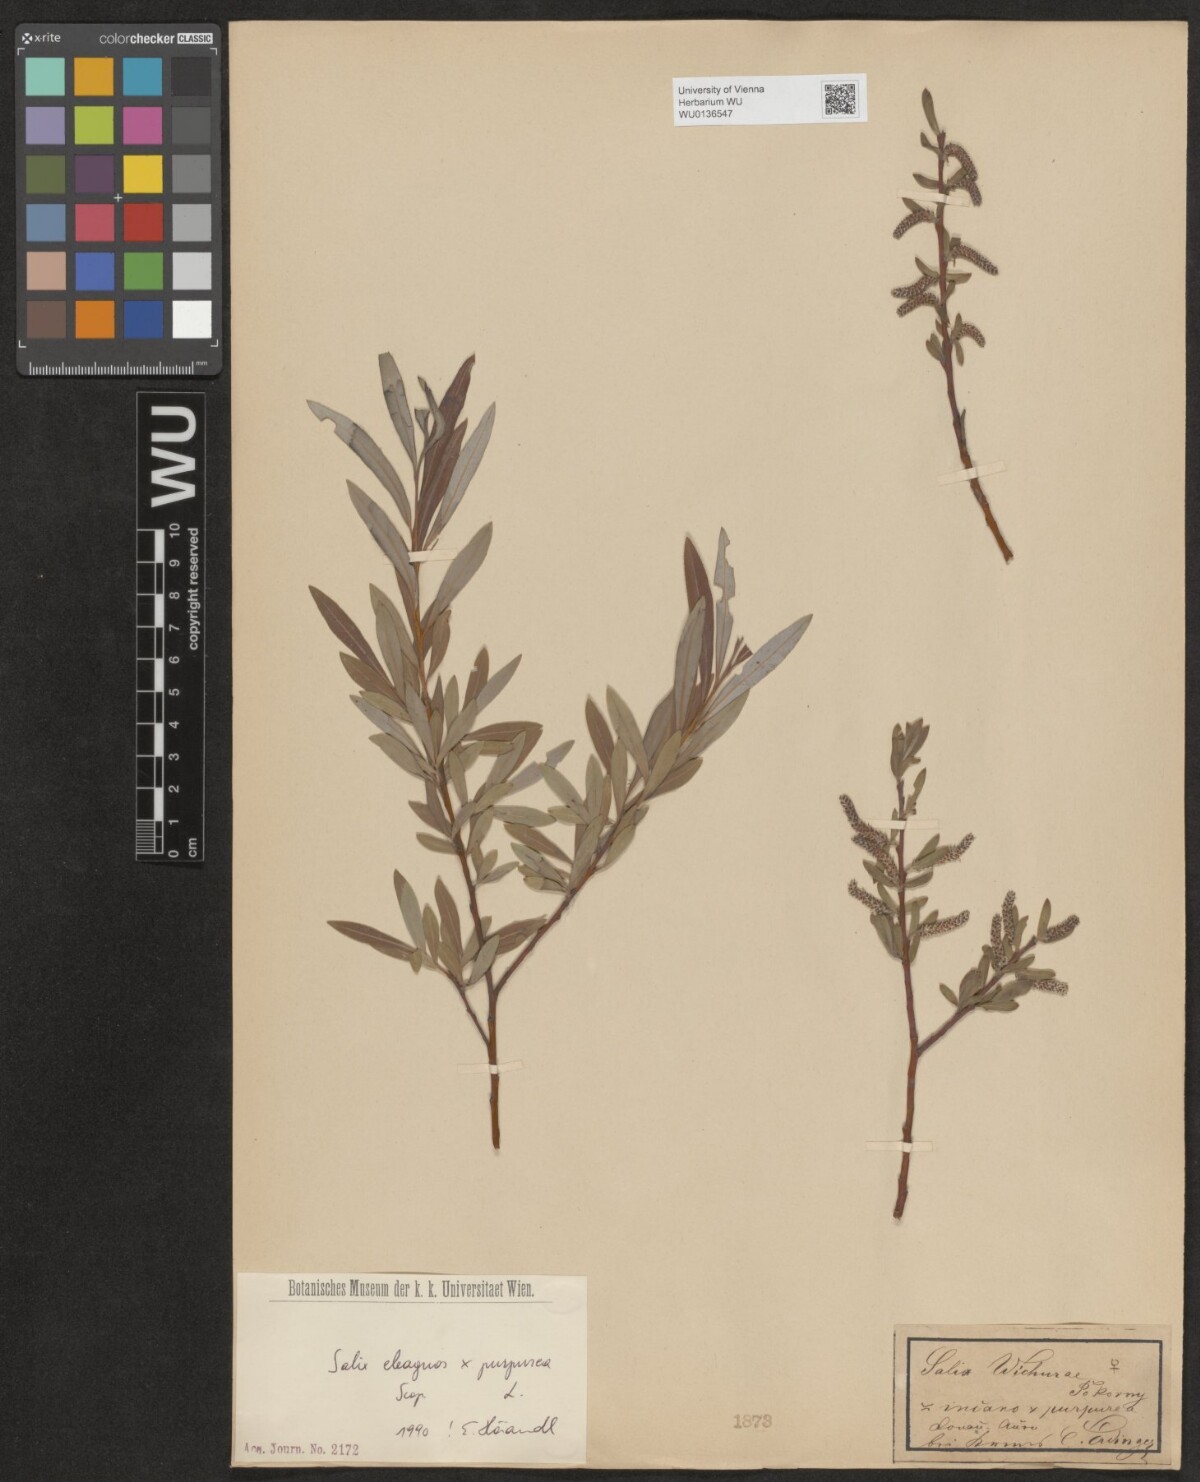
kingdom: Plantae
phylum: Tracheophyta
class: Magnoliopsida
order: Malpighiales
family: Salicaceae
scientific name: Salicaceae
